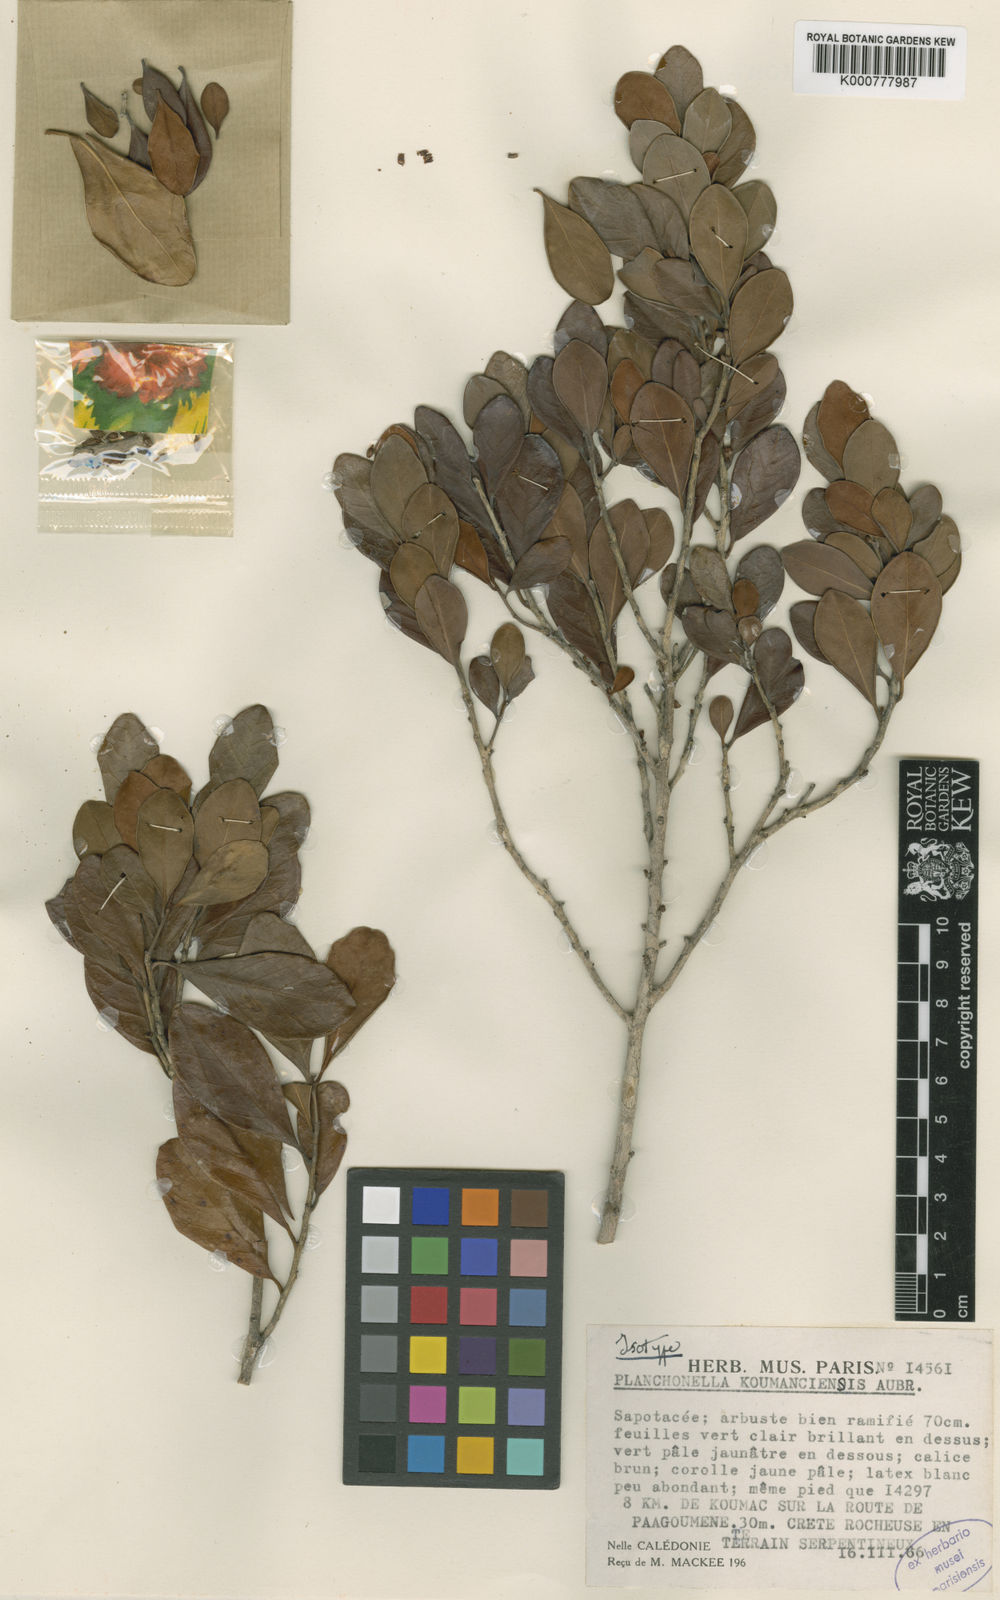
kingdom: Plantae
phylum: Tracheophyta
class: Magnoliopsida
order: Ericales
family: Sapotaceae
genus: Pouteria
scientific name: Pouteria
